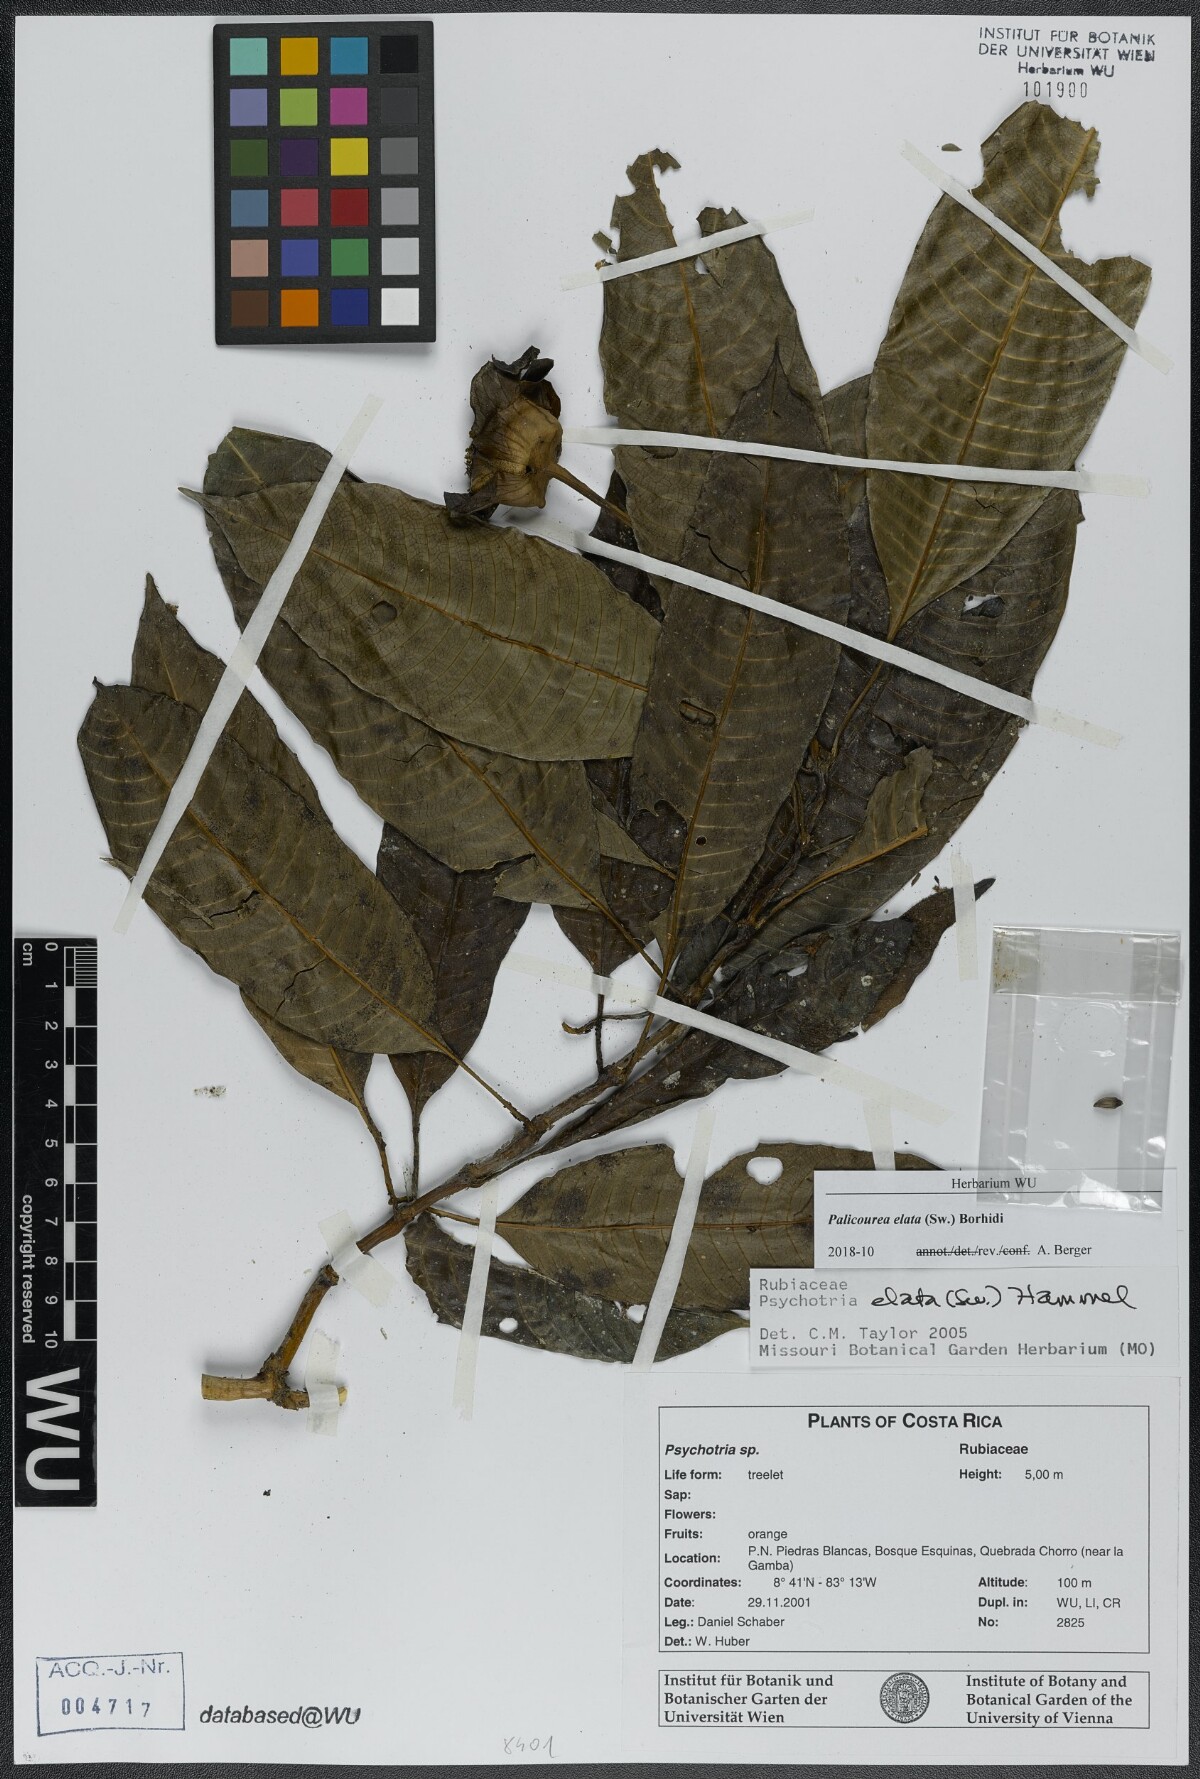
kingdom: Plantae
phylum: Tracheophyta
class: Magnoliopsida
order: Gentianales
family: Rubiaceae
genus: Palicourea
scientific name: Palicourea elata
